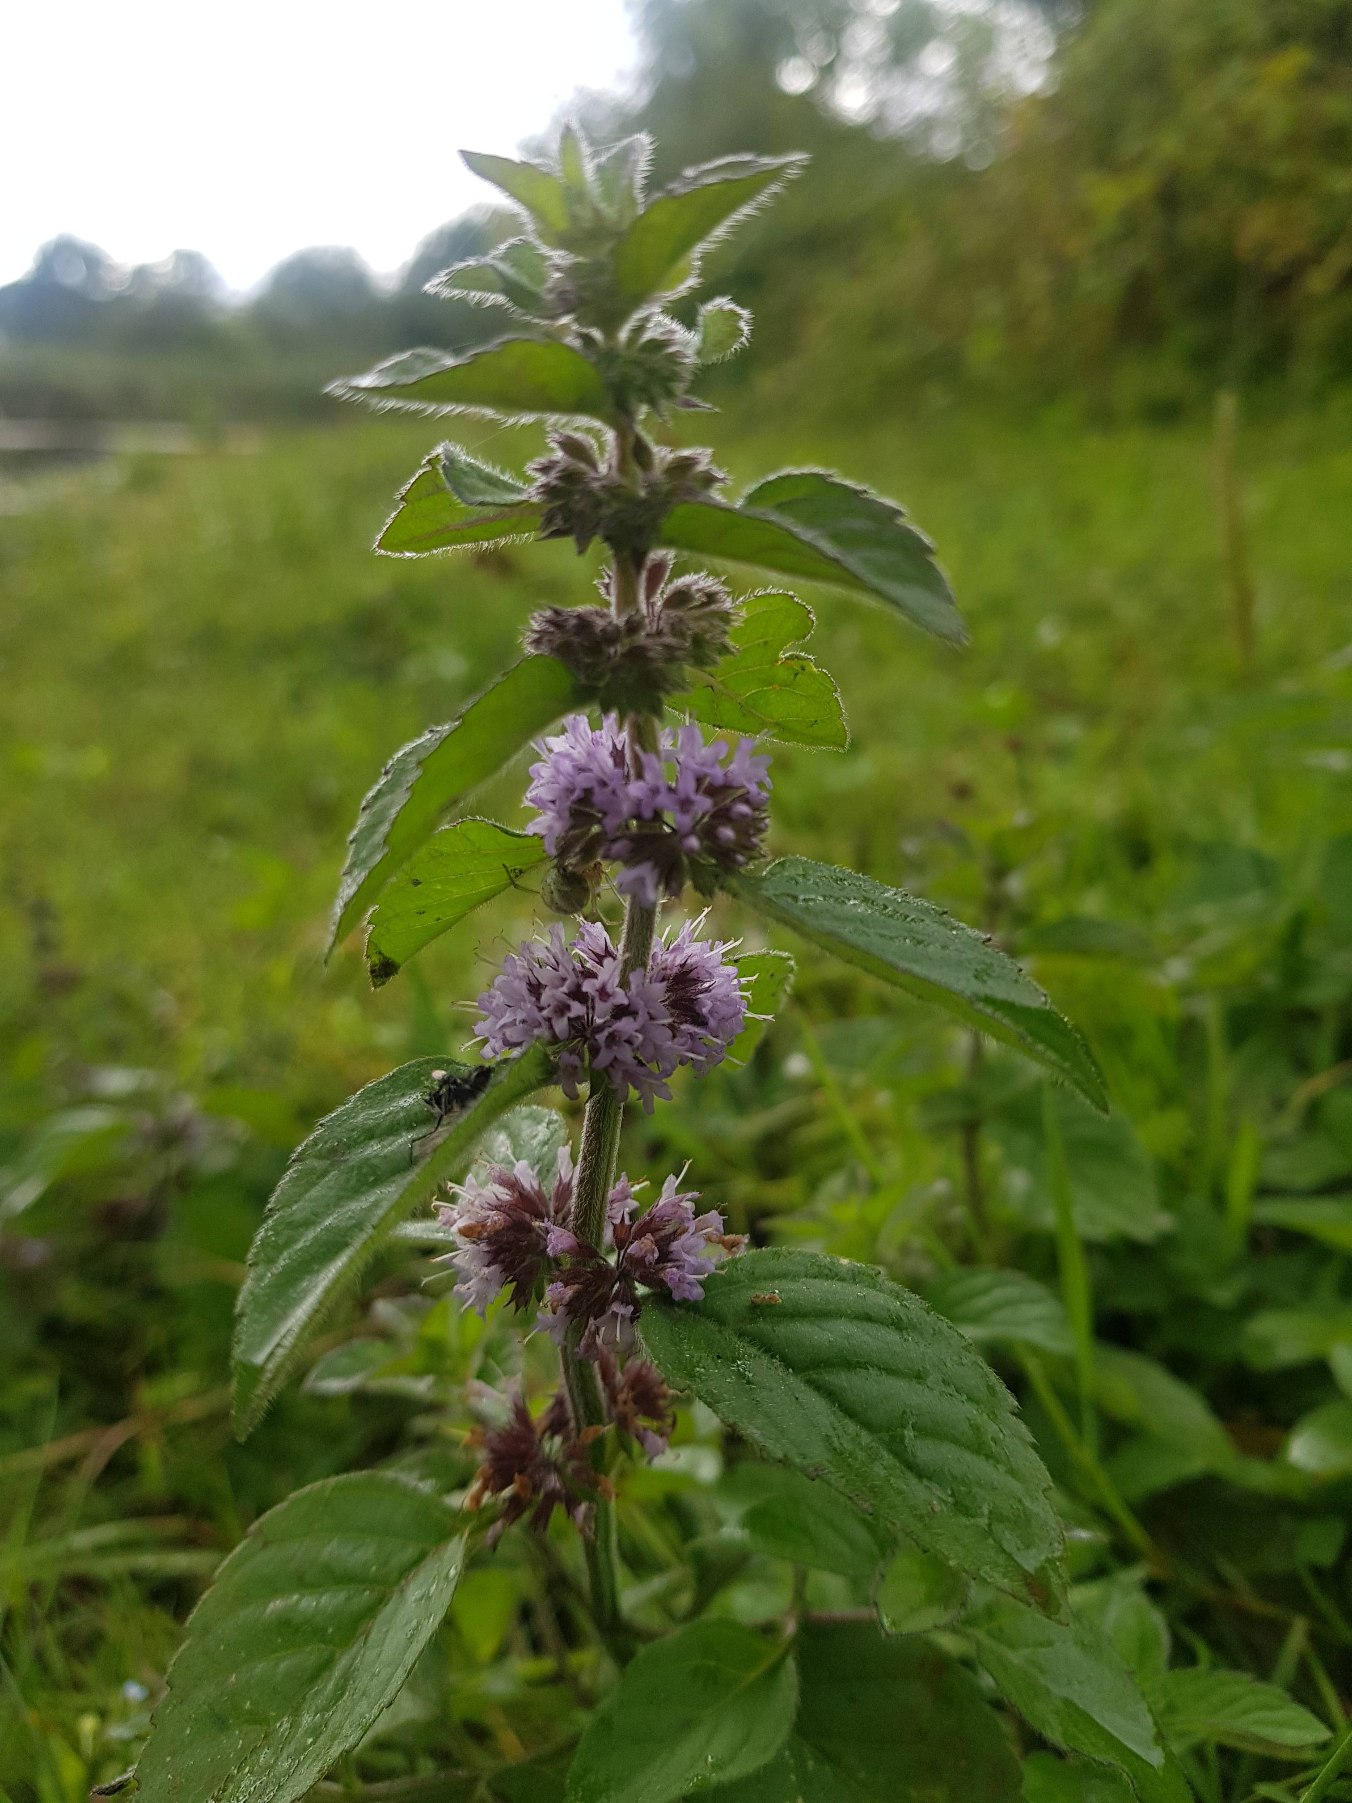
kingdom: Plantae
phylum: Tracheophyta
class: Magnoliopsida
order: Lamiales
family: Lamiaceae
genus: Mentha
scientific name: Mentha verticillata
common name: Krans-mynte
